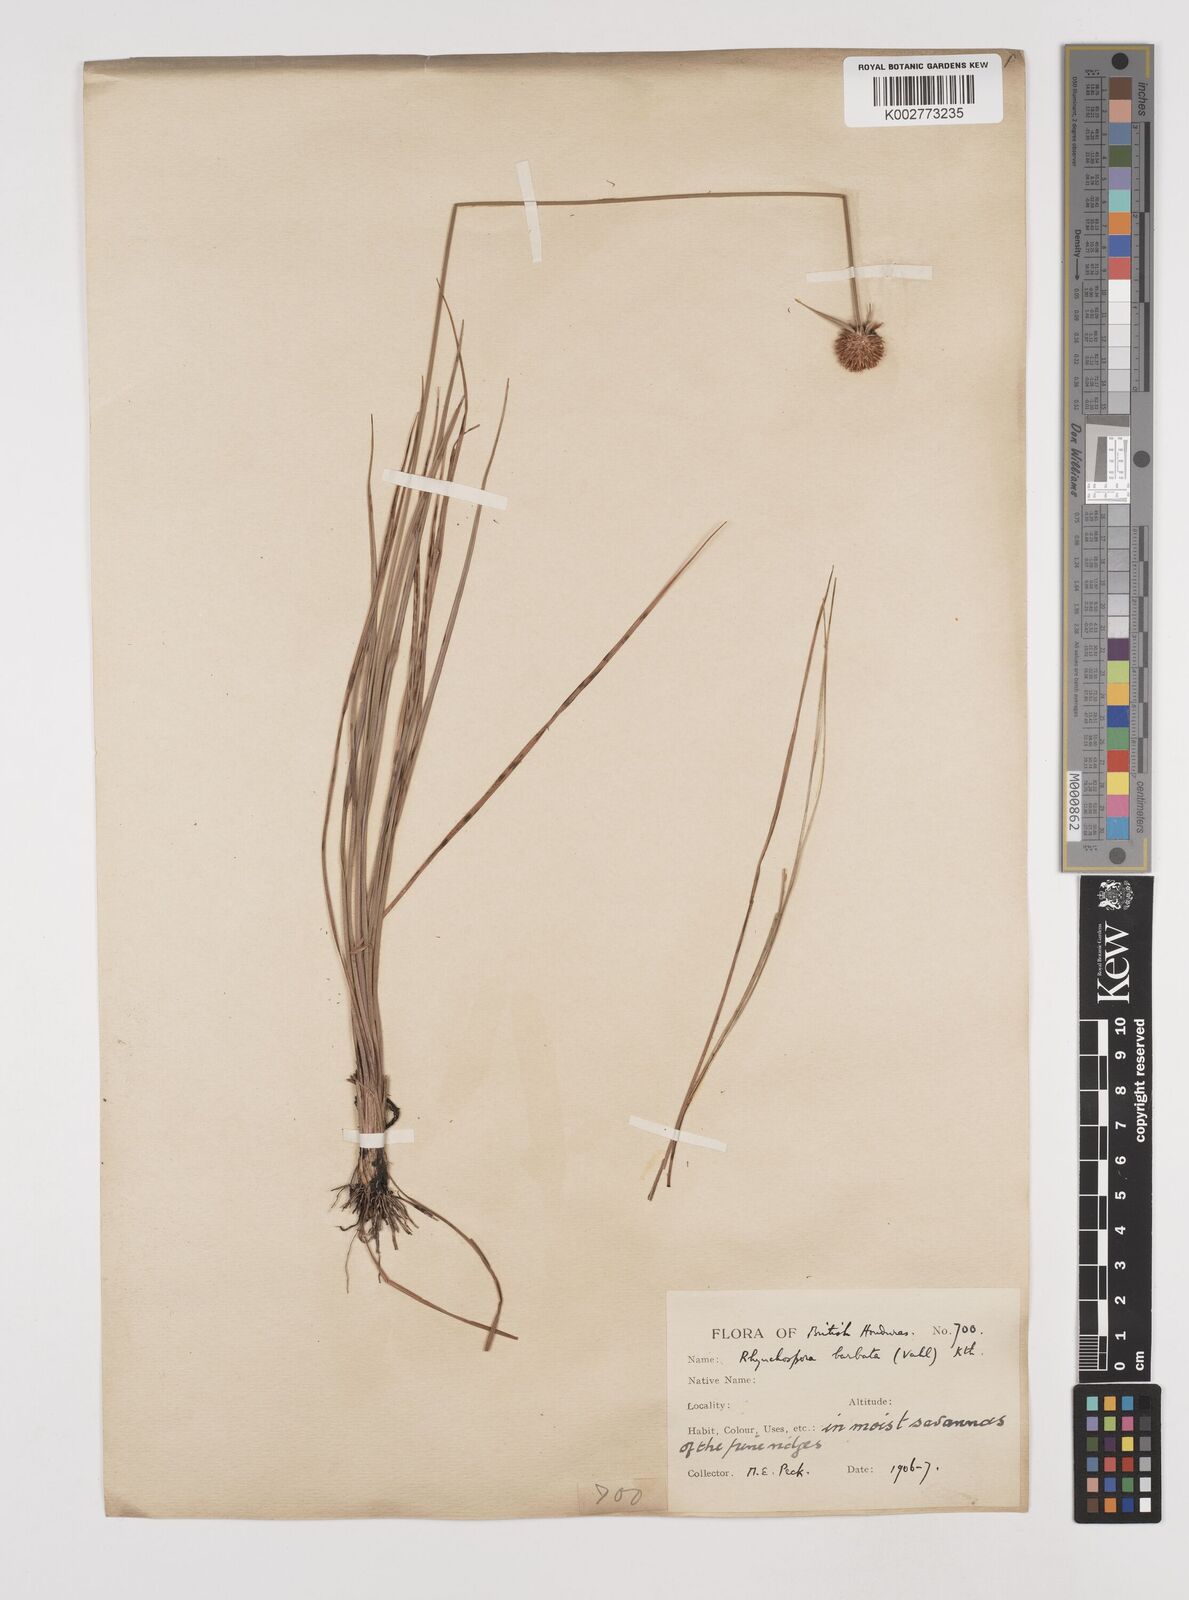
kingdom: Plantae
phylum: Tracheophyta
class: Liliopsida
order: Poales
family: Cyperaceae
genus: Rhynchospora
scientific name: Rhynchospora barbata
